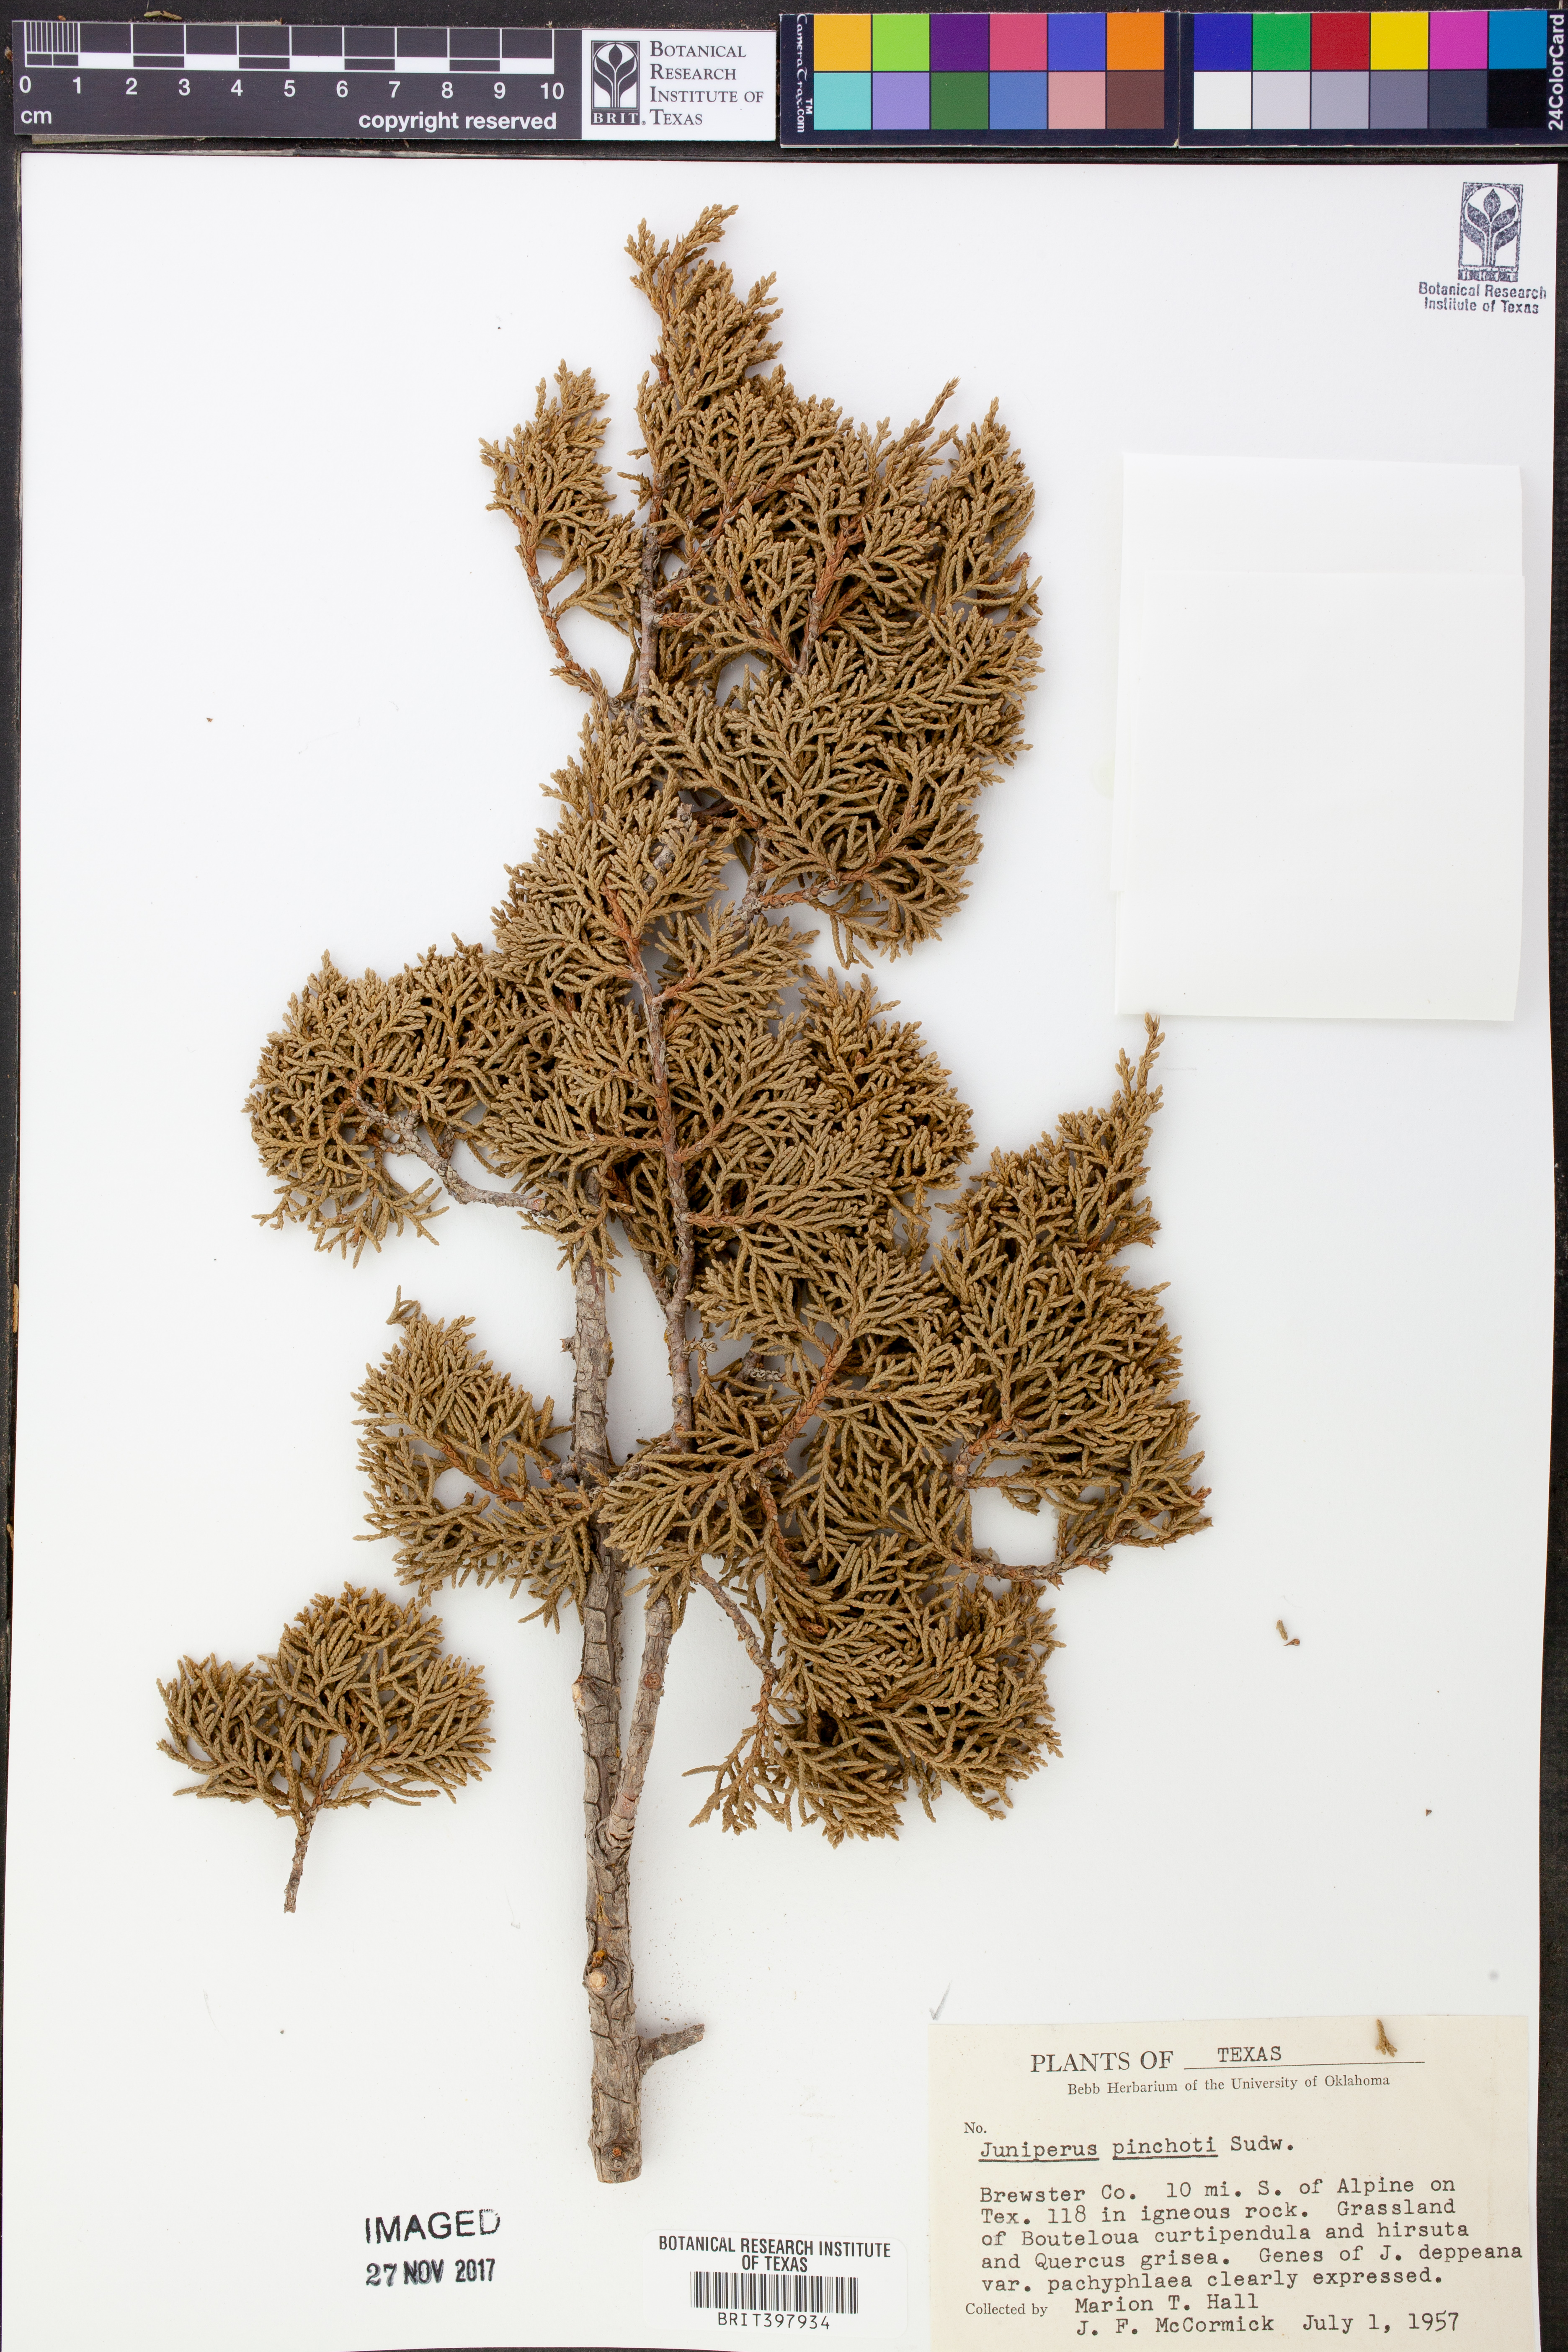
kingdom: Plantae
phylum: Tracheophyta
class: Pinopsida
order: Pinales
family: Cupressaceae
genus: Juniperus
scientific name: Juniperus pinchotii
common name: Pinchot juniper
